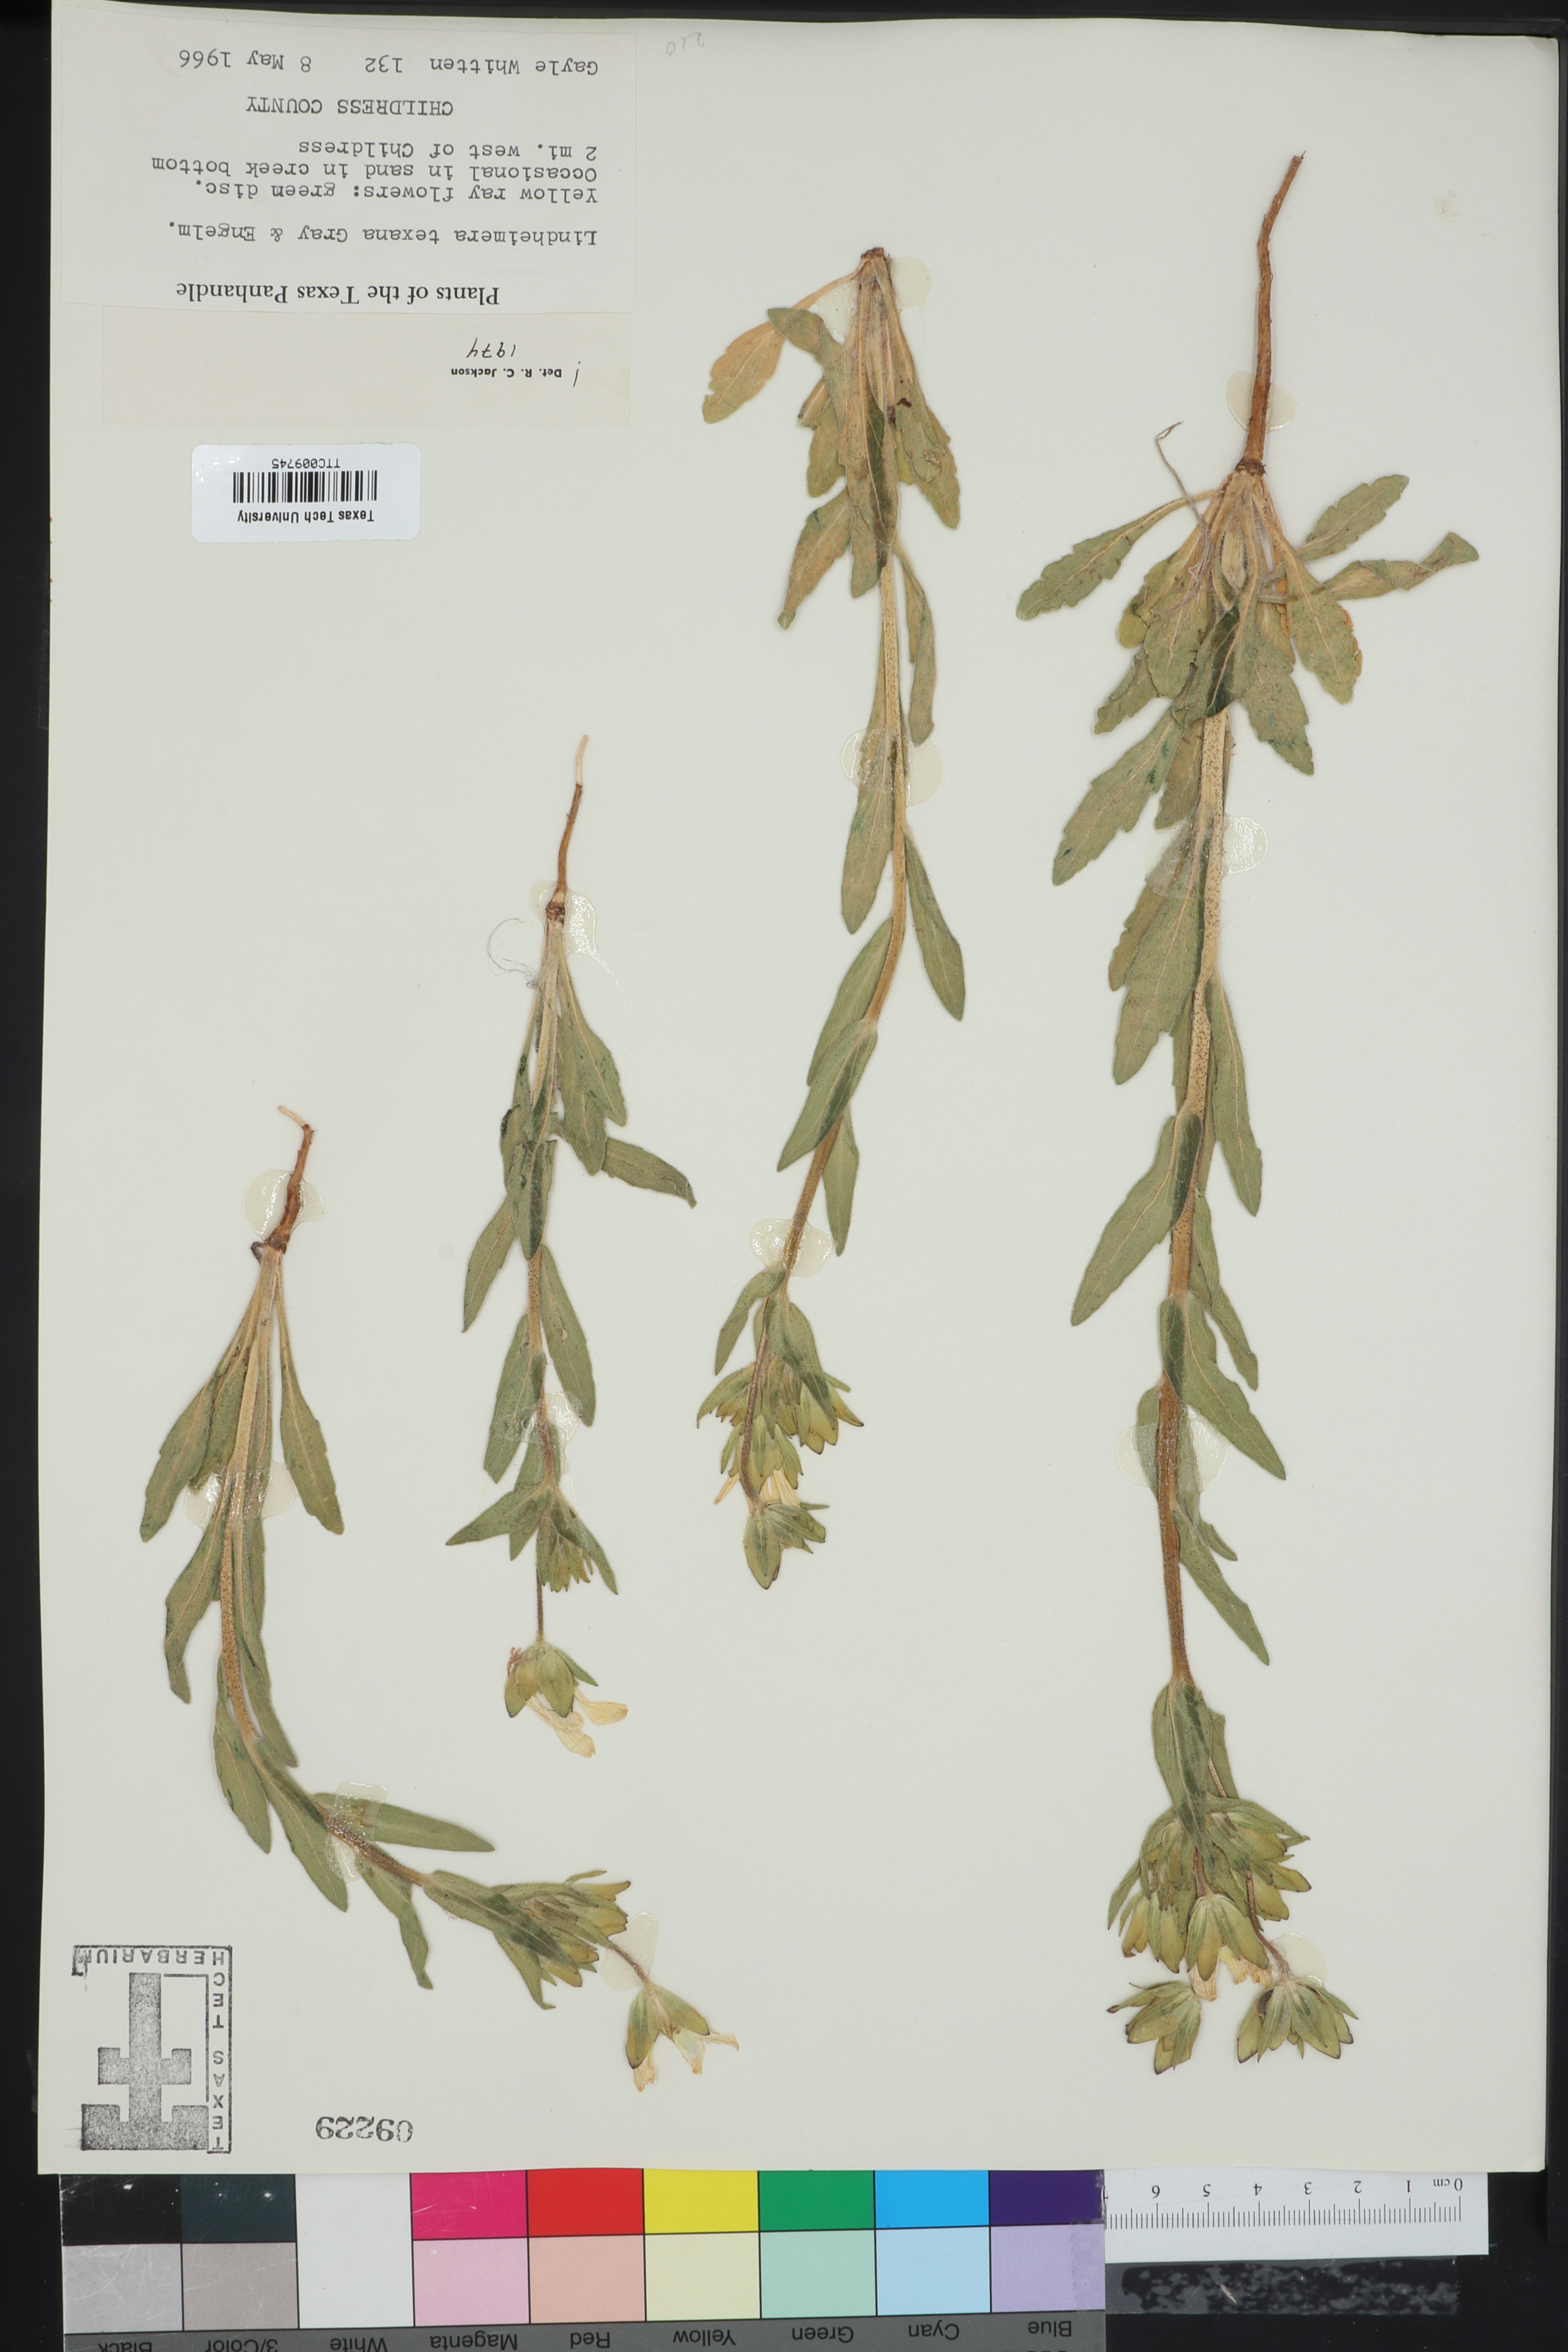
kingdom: Plantae
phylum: Tracheophyta
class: Magnoliopsida
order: Asterales
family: Asteraceae
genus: Lindheimera
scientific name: Lindheimera texana
